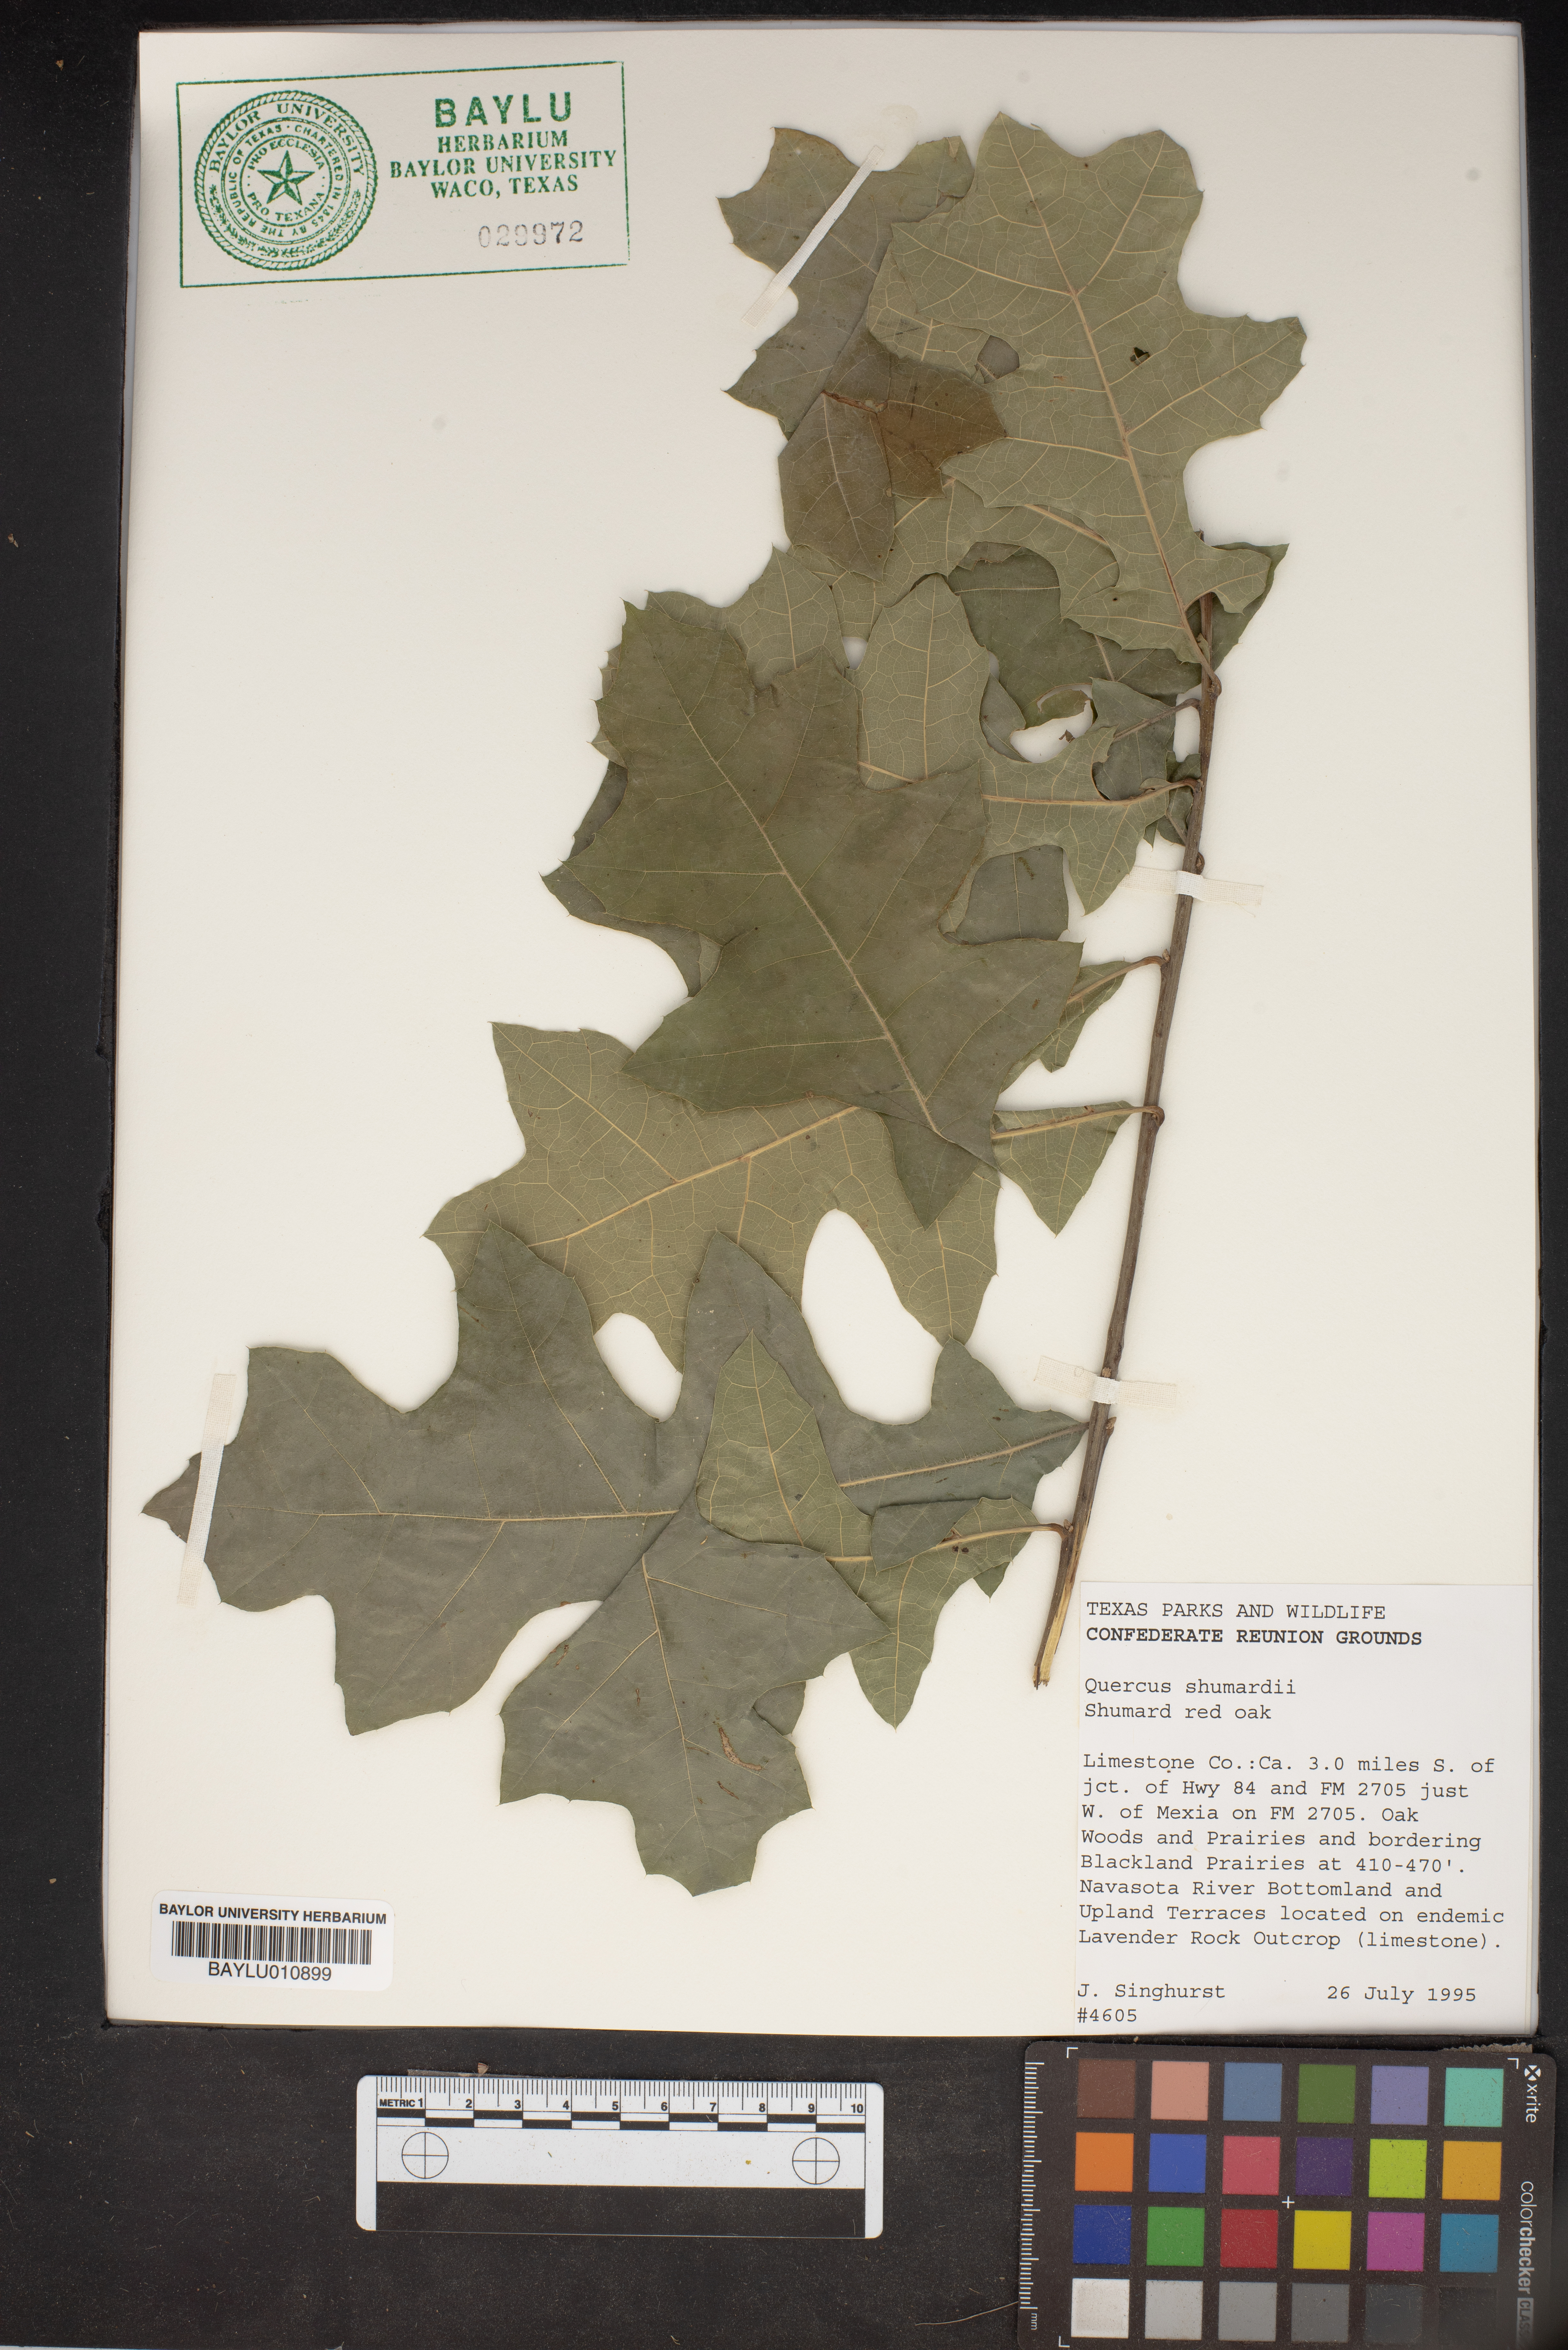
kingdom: Plantae
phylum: Tracheophyta
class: Magnoliopsida
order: Fagales
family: Fagaceae
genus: Quercus
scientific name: Quercus shumardii
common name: Shumard oak
